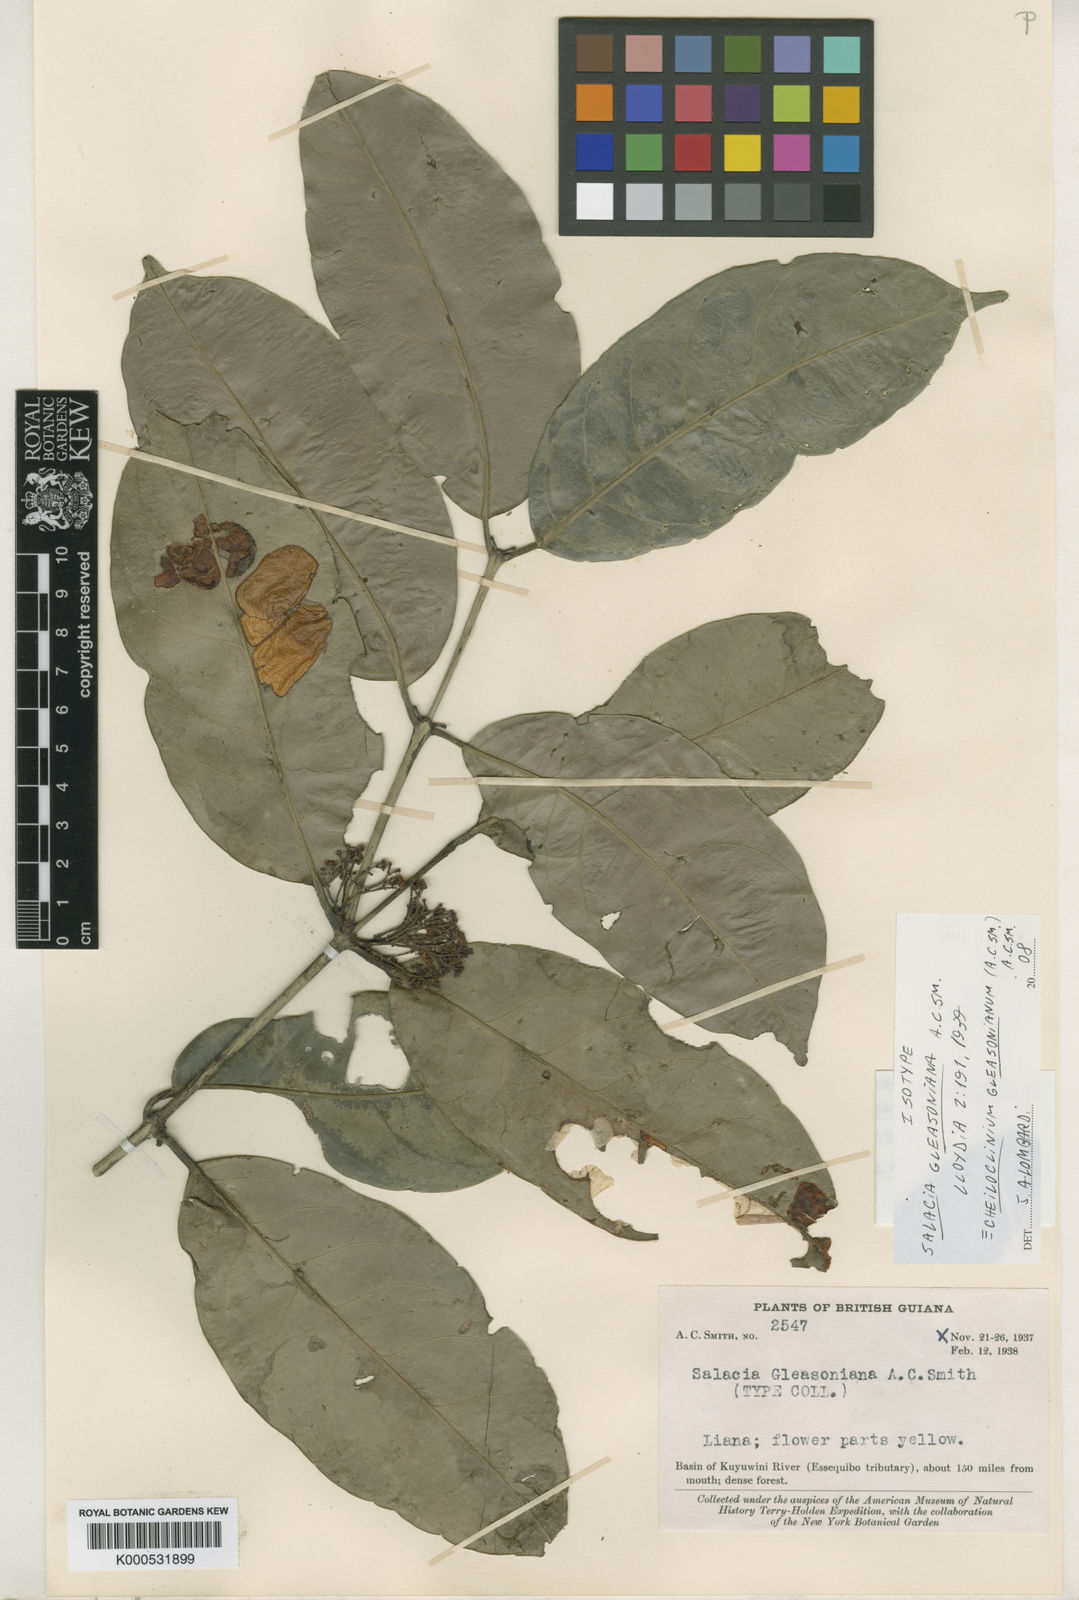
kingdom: Plantae
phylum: Tracheophyta
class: Magnoliopsida
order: Celastrales
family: Celastraceae
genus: Cheiloclinium
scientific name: Cheiloclinium gleasonianum
